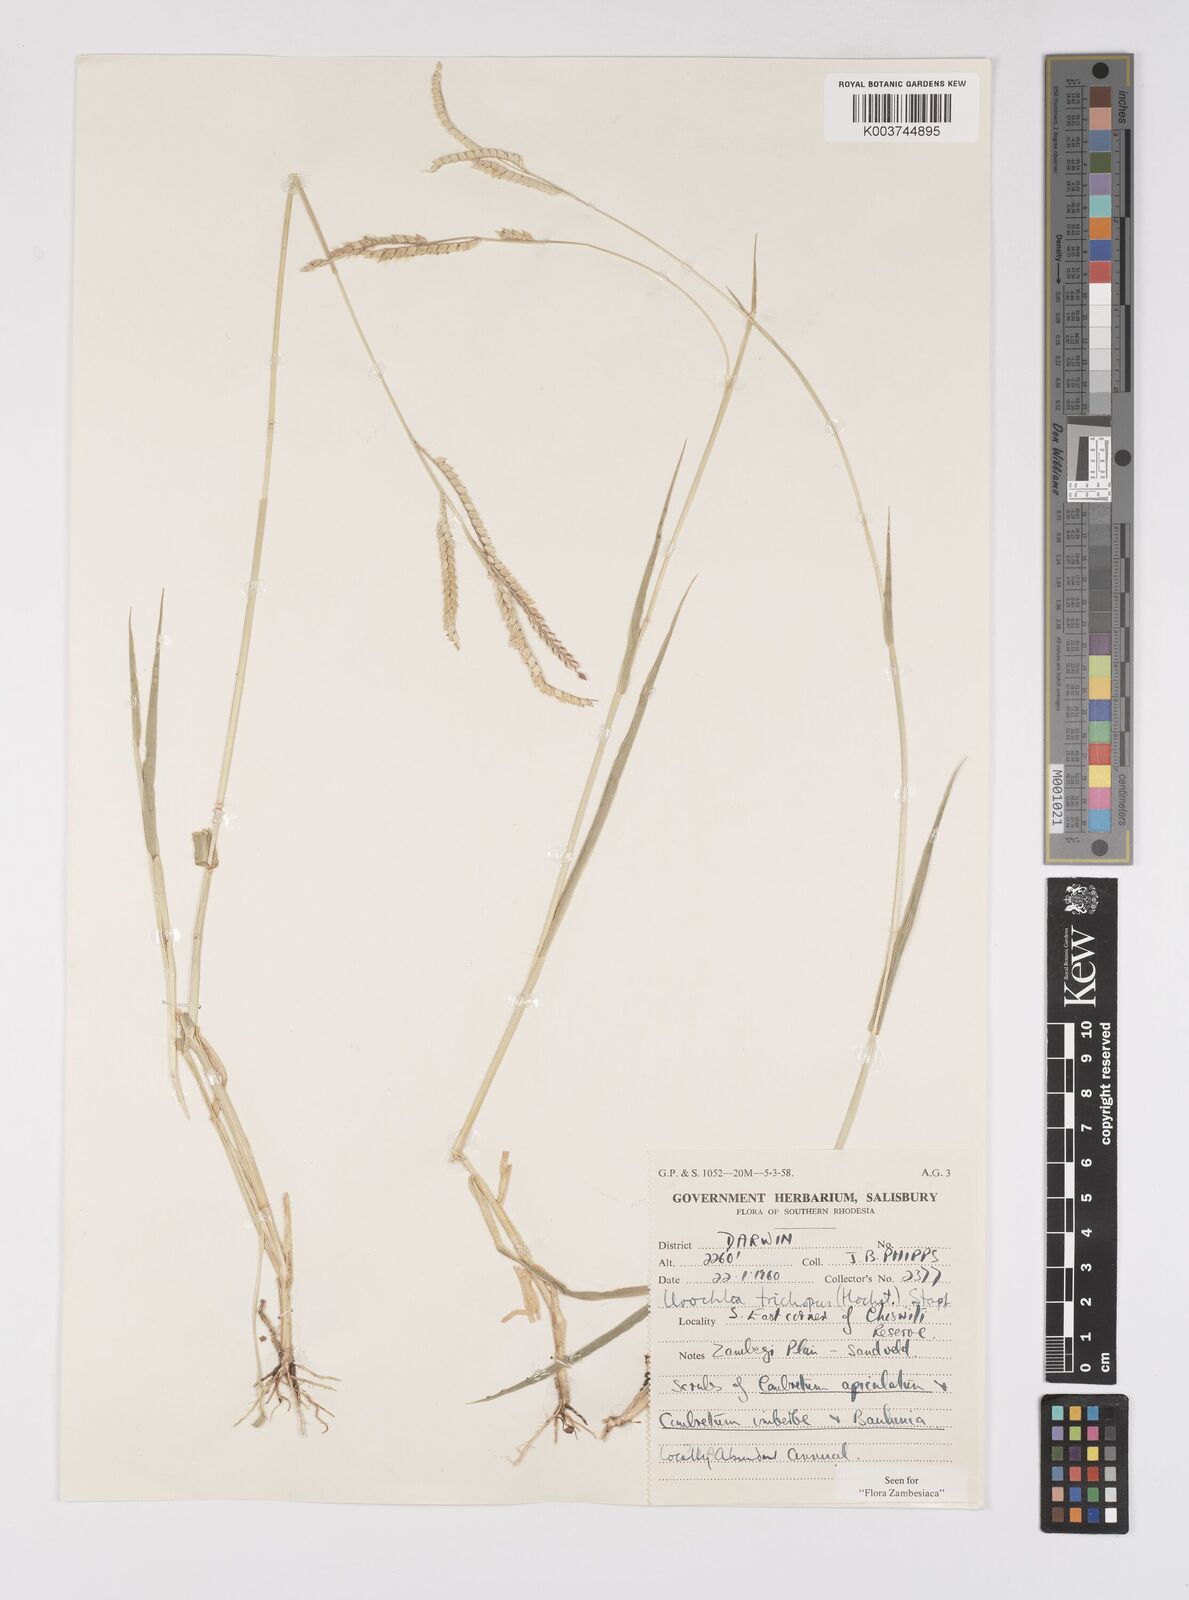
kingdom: Plantae
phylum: Tracheophyta
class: Liliopsida
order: Poales
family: Poaceae
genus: Urochloa
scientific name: Urochloa trichopus
